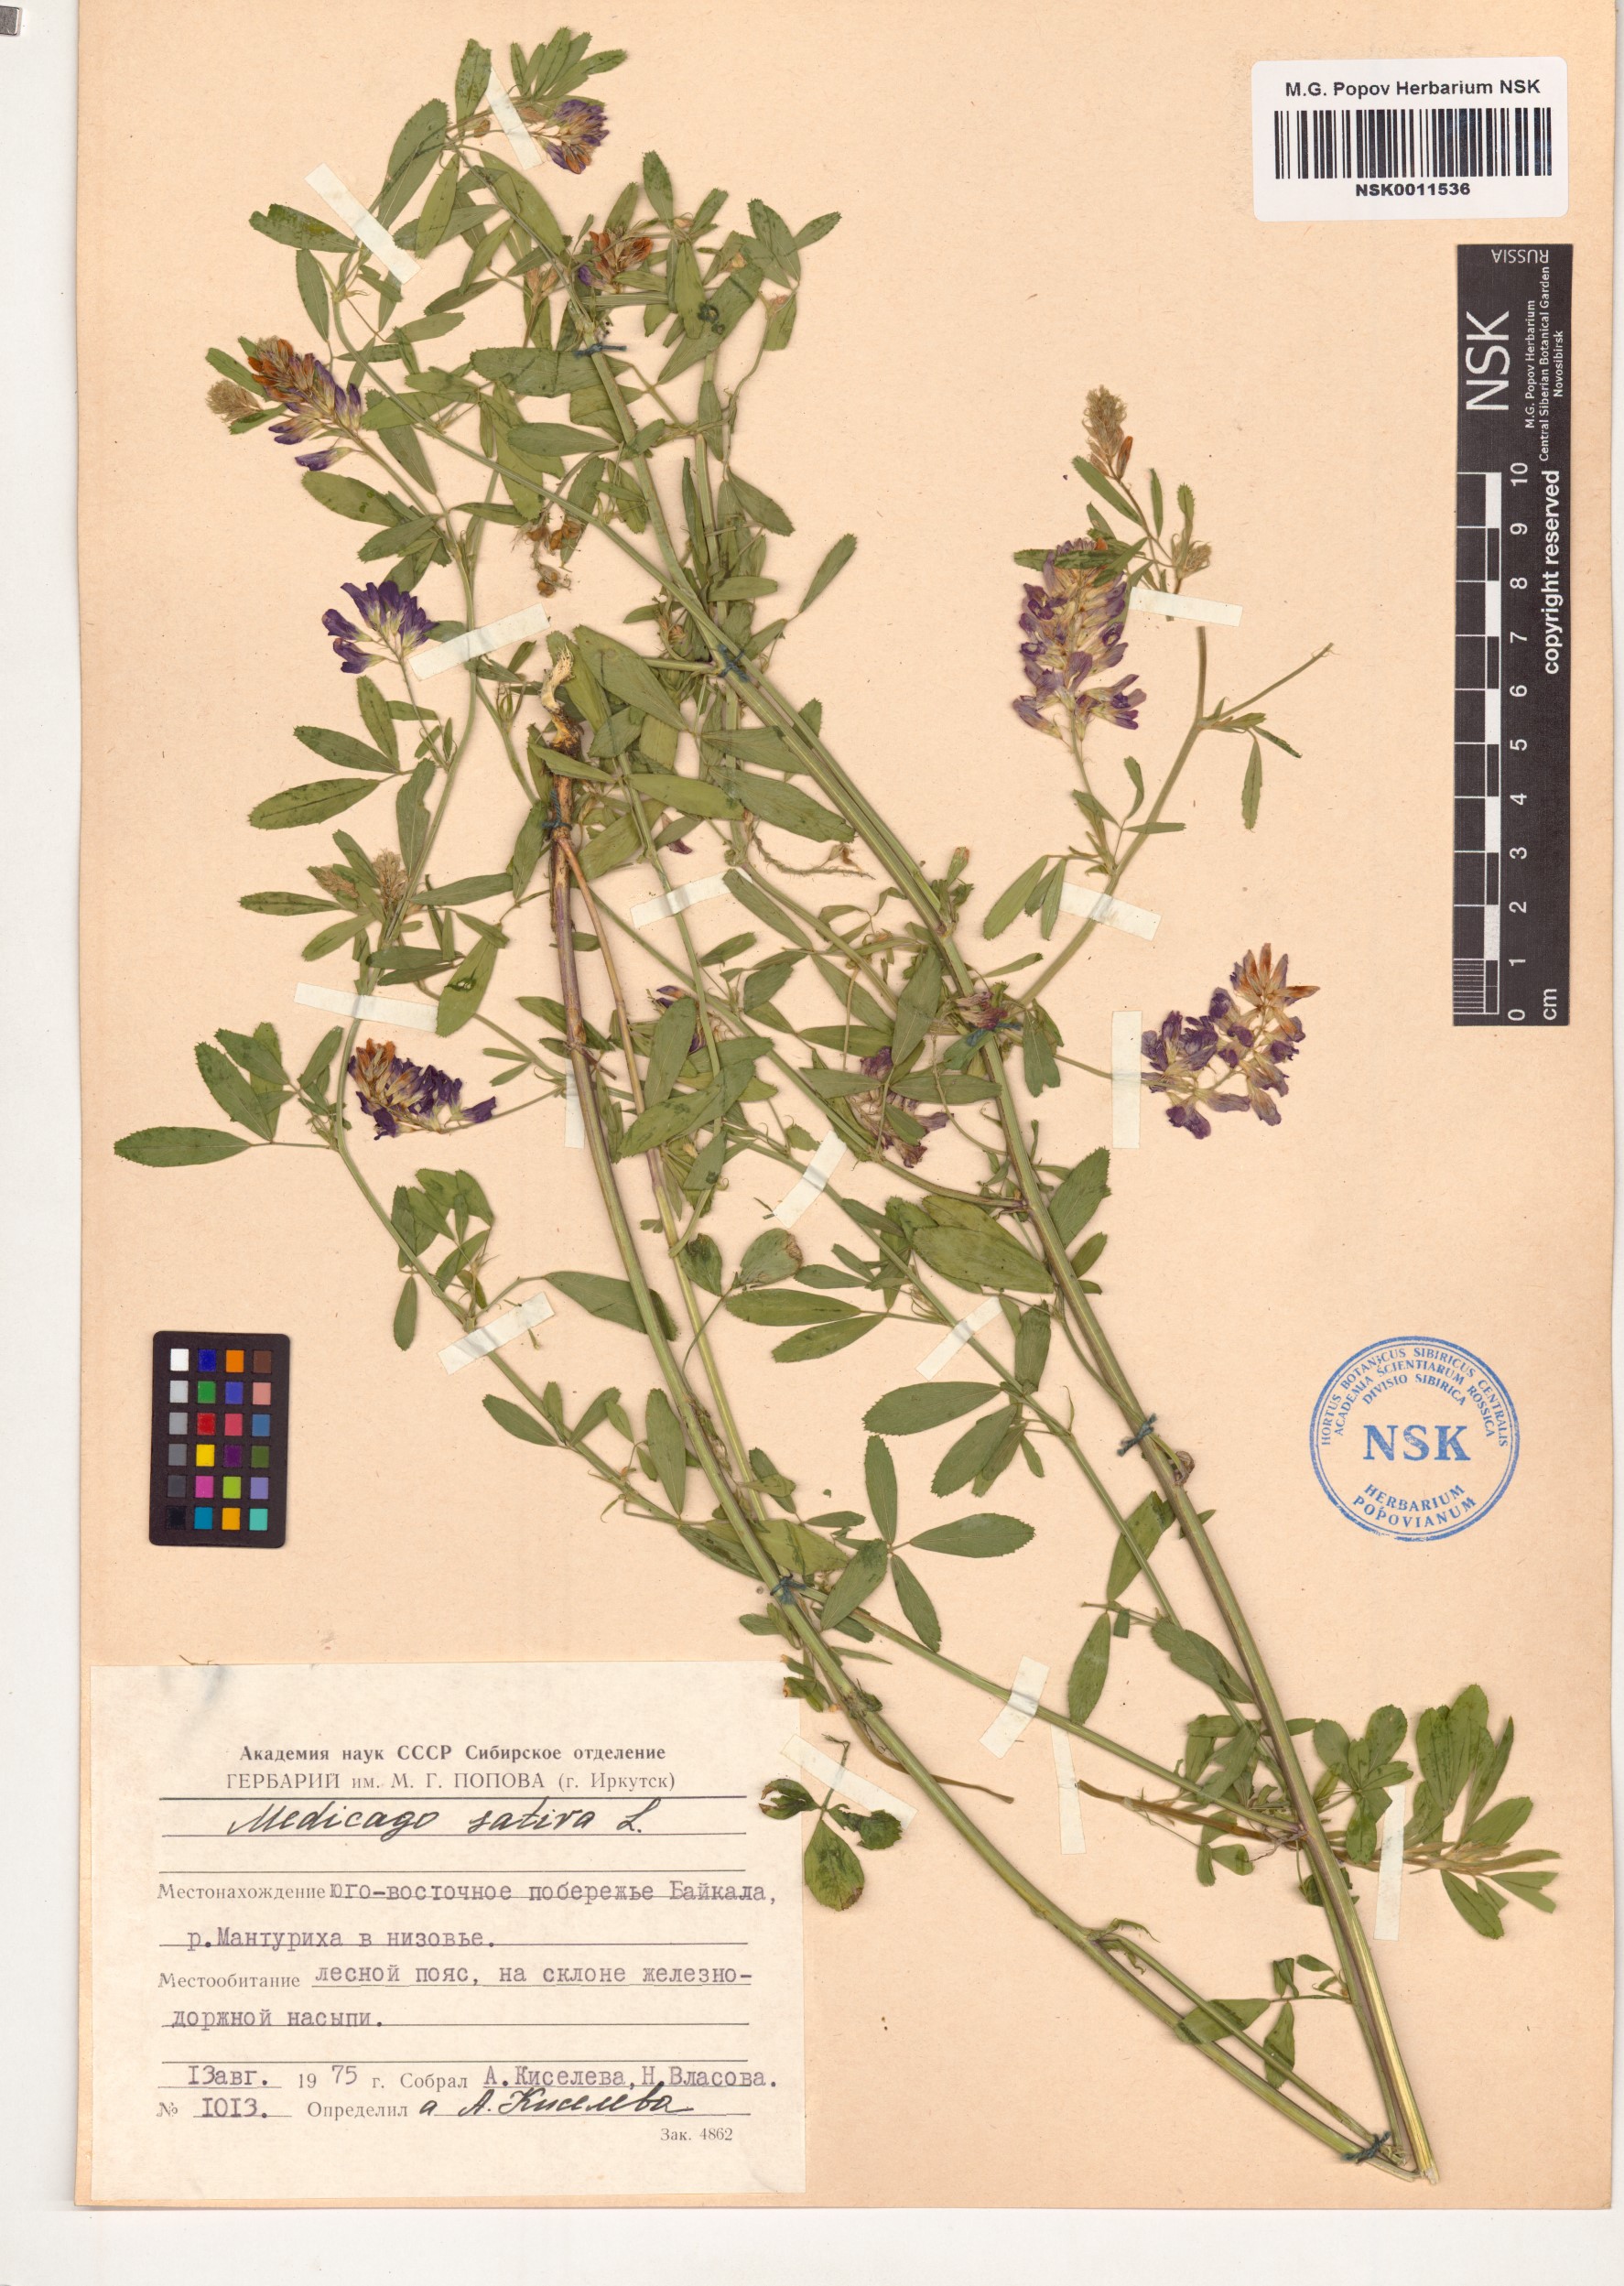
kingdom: Plantae
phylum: Tracheophyta
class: Magnoliopsida
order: Fabales
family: Fabaceae
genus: Medicago
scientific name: Medicago sativa
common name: Alfalfa
